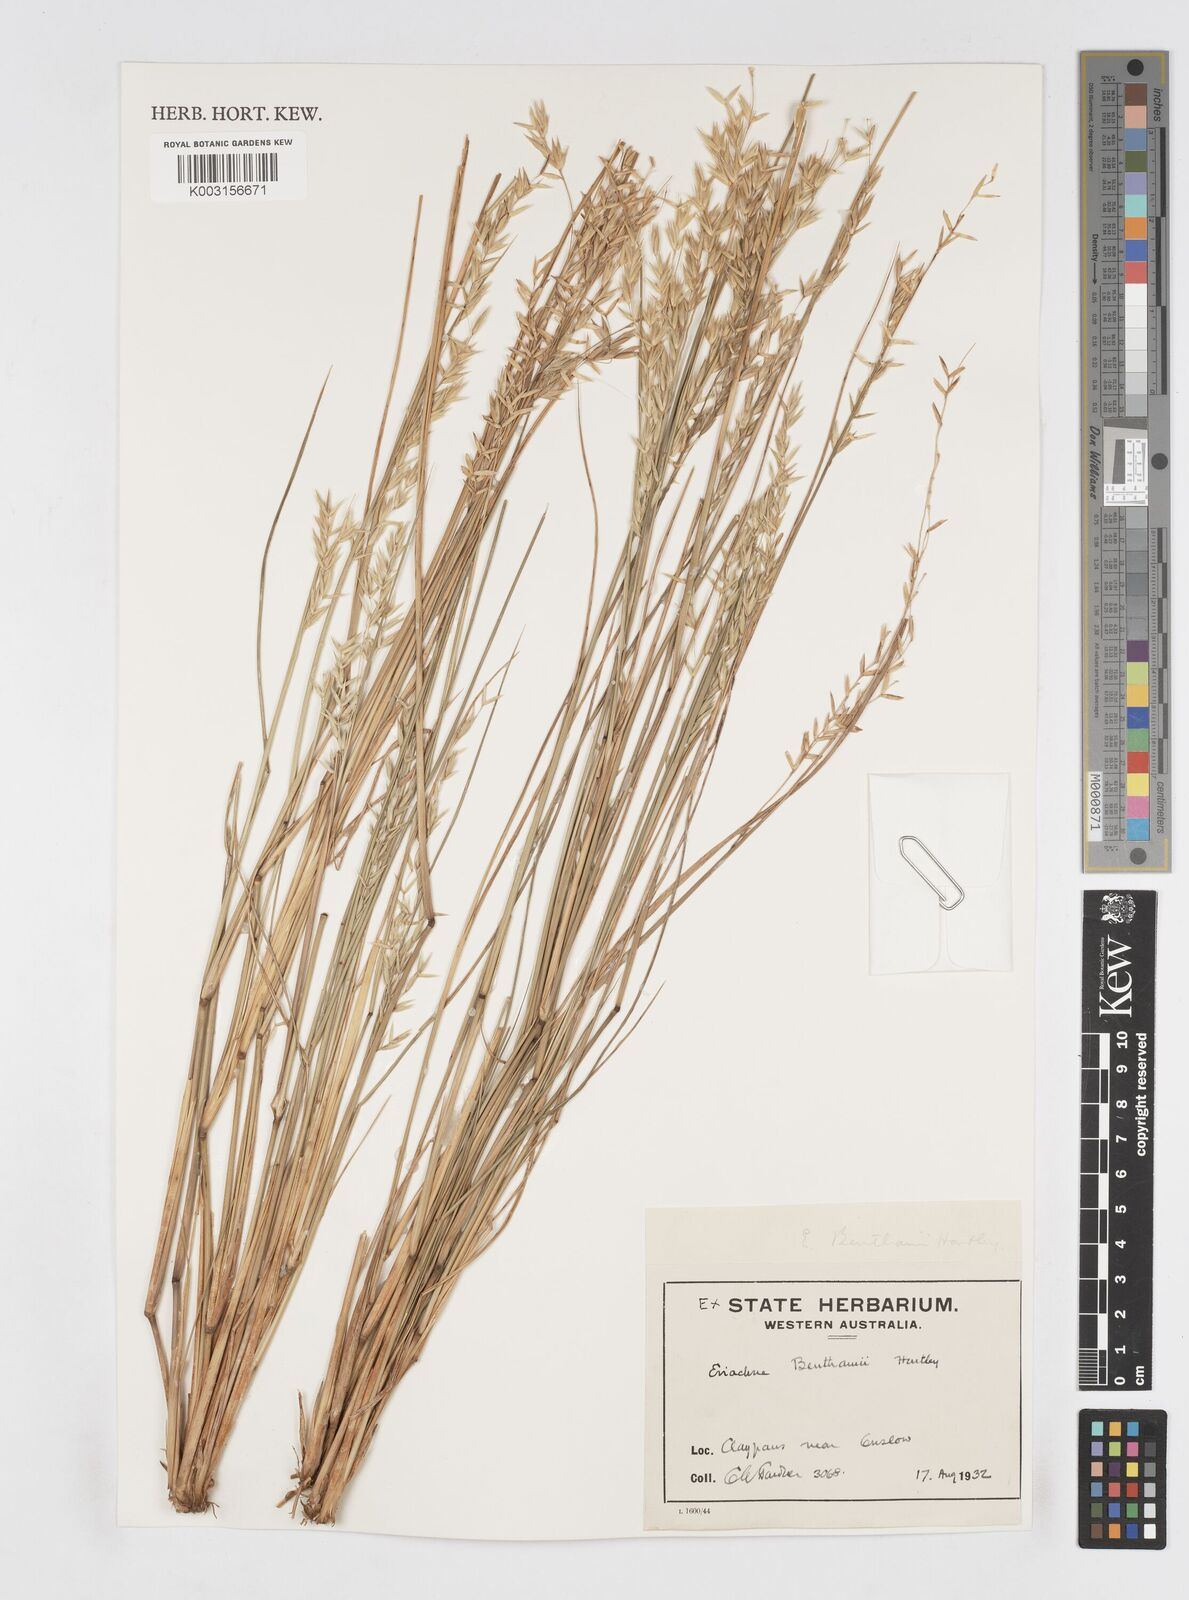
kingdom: Plantae
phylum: Tracheophyta
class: Liliopsida
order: Poales
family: Poaceae
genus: Eriachne
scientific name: Eriachne benthamii
